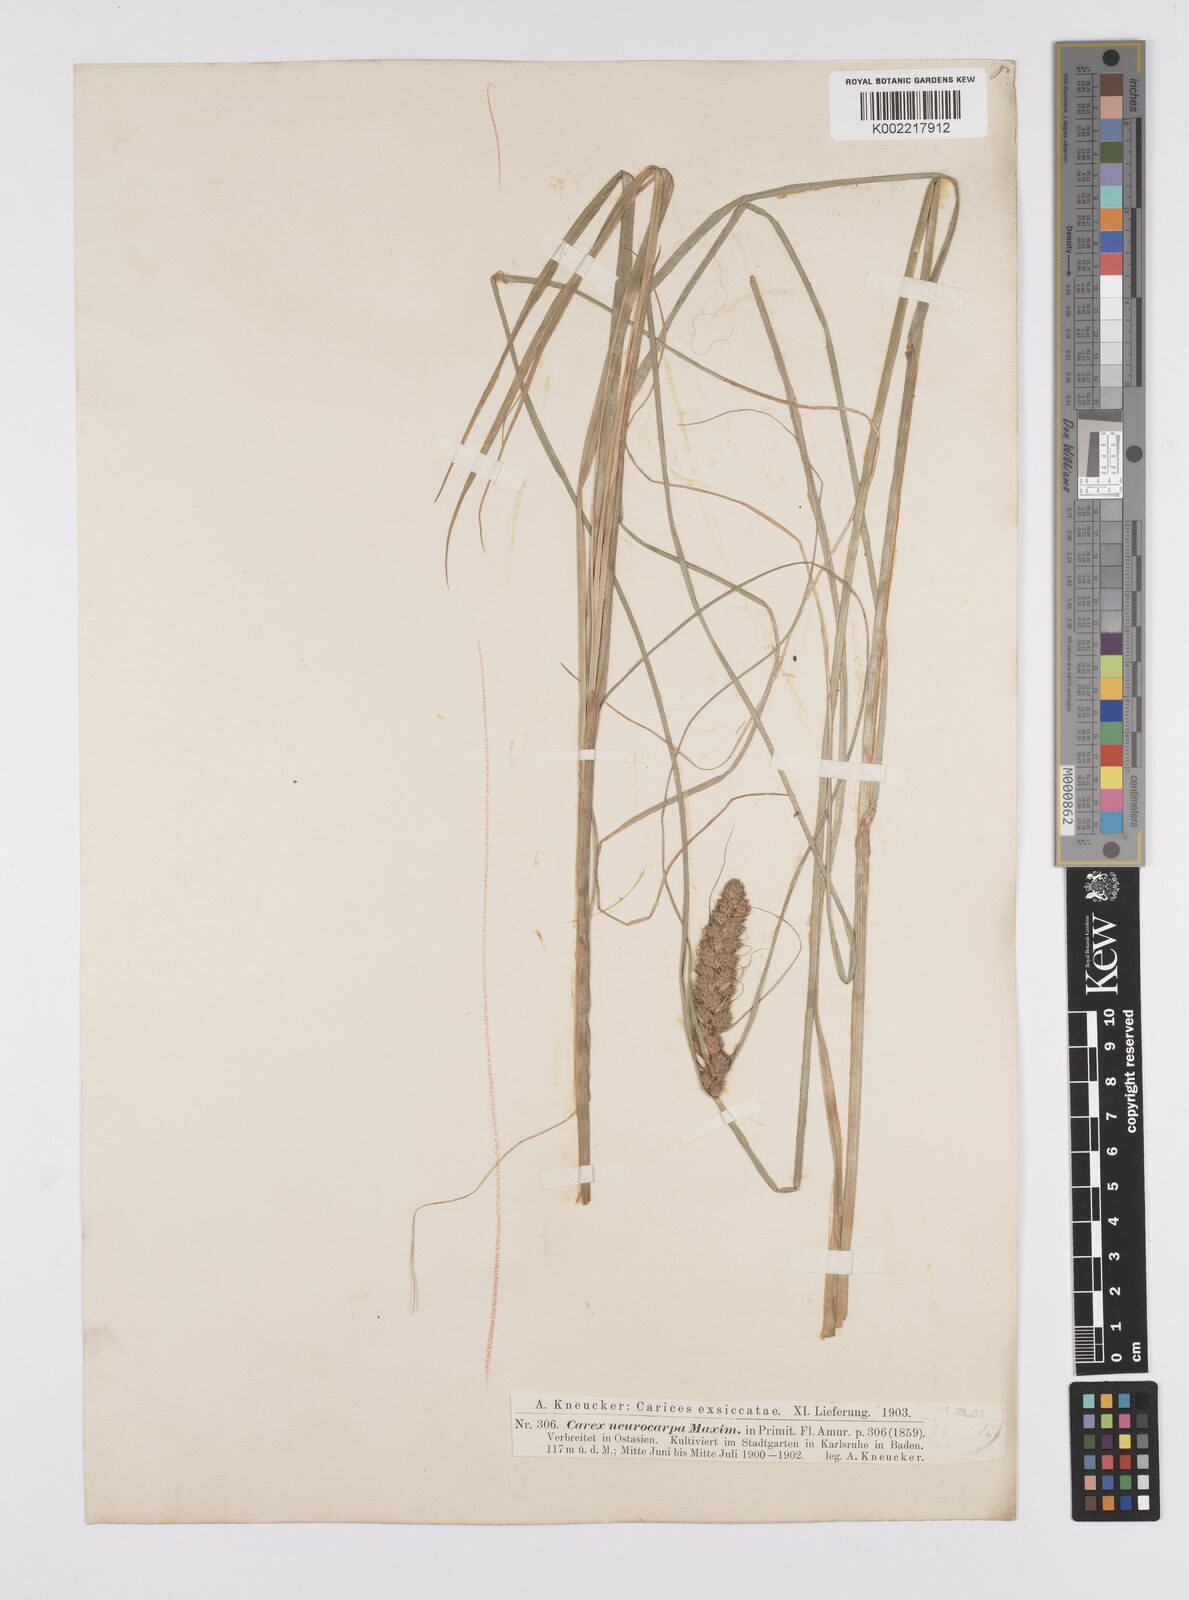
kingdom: Plantae
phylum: Tracheophyta
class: Liliopsida
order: Poales
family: Cyperaceae
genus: Carex
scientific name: Carex neurocarpa
